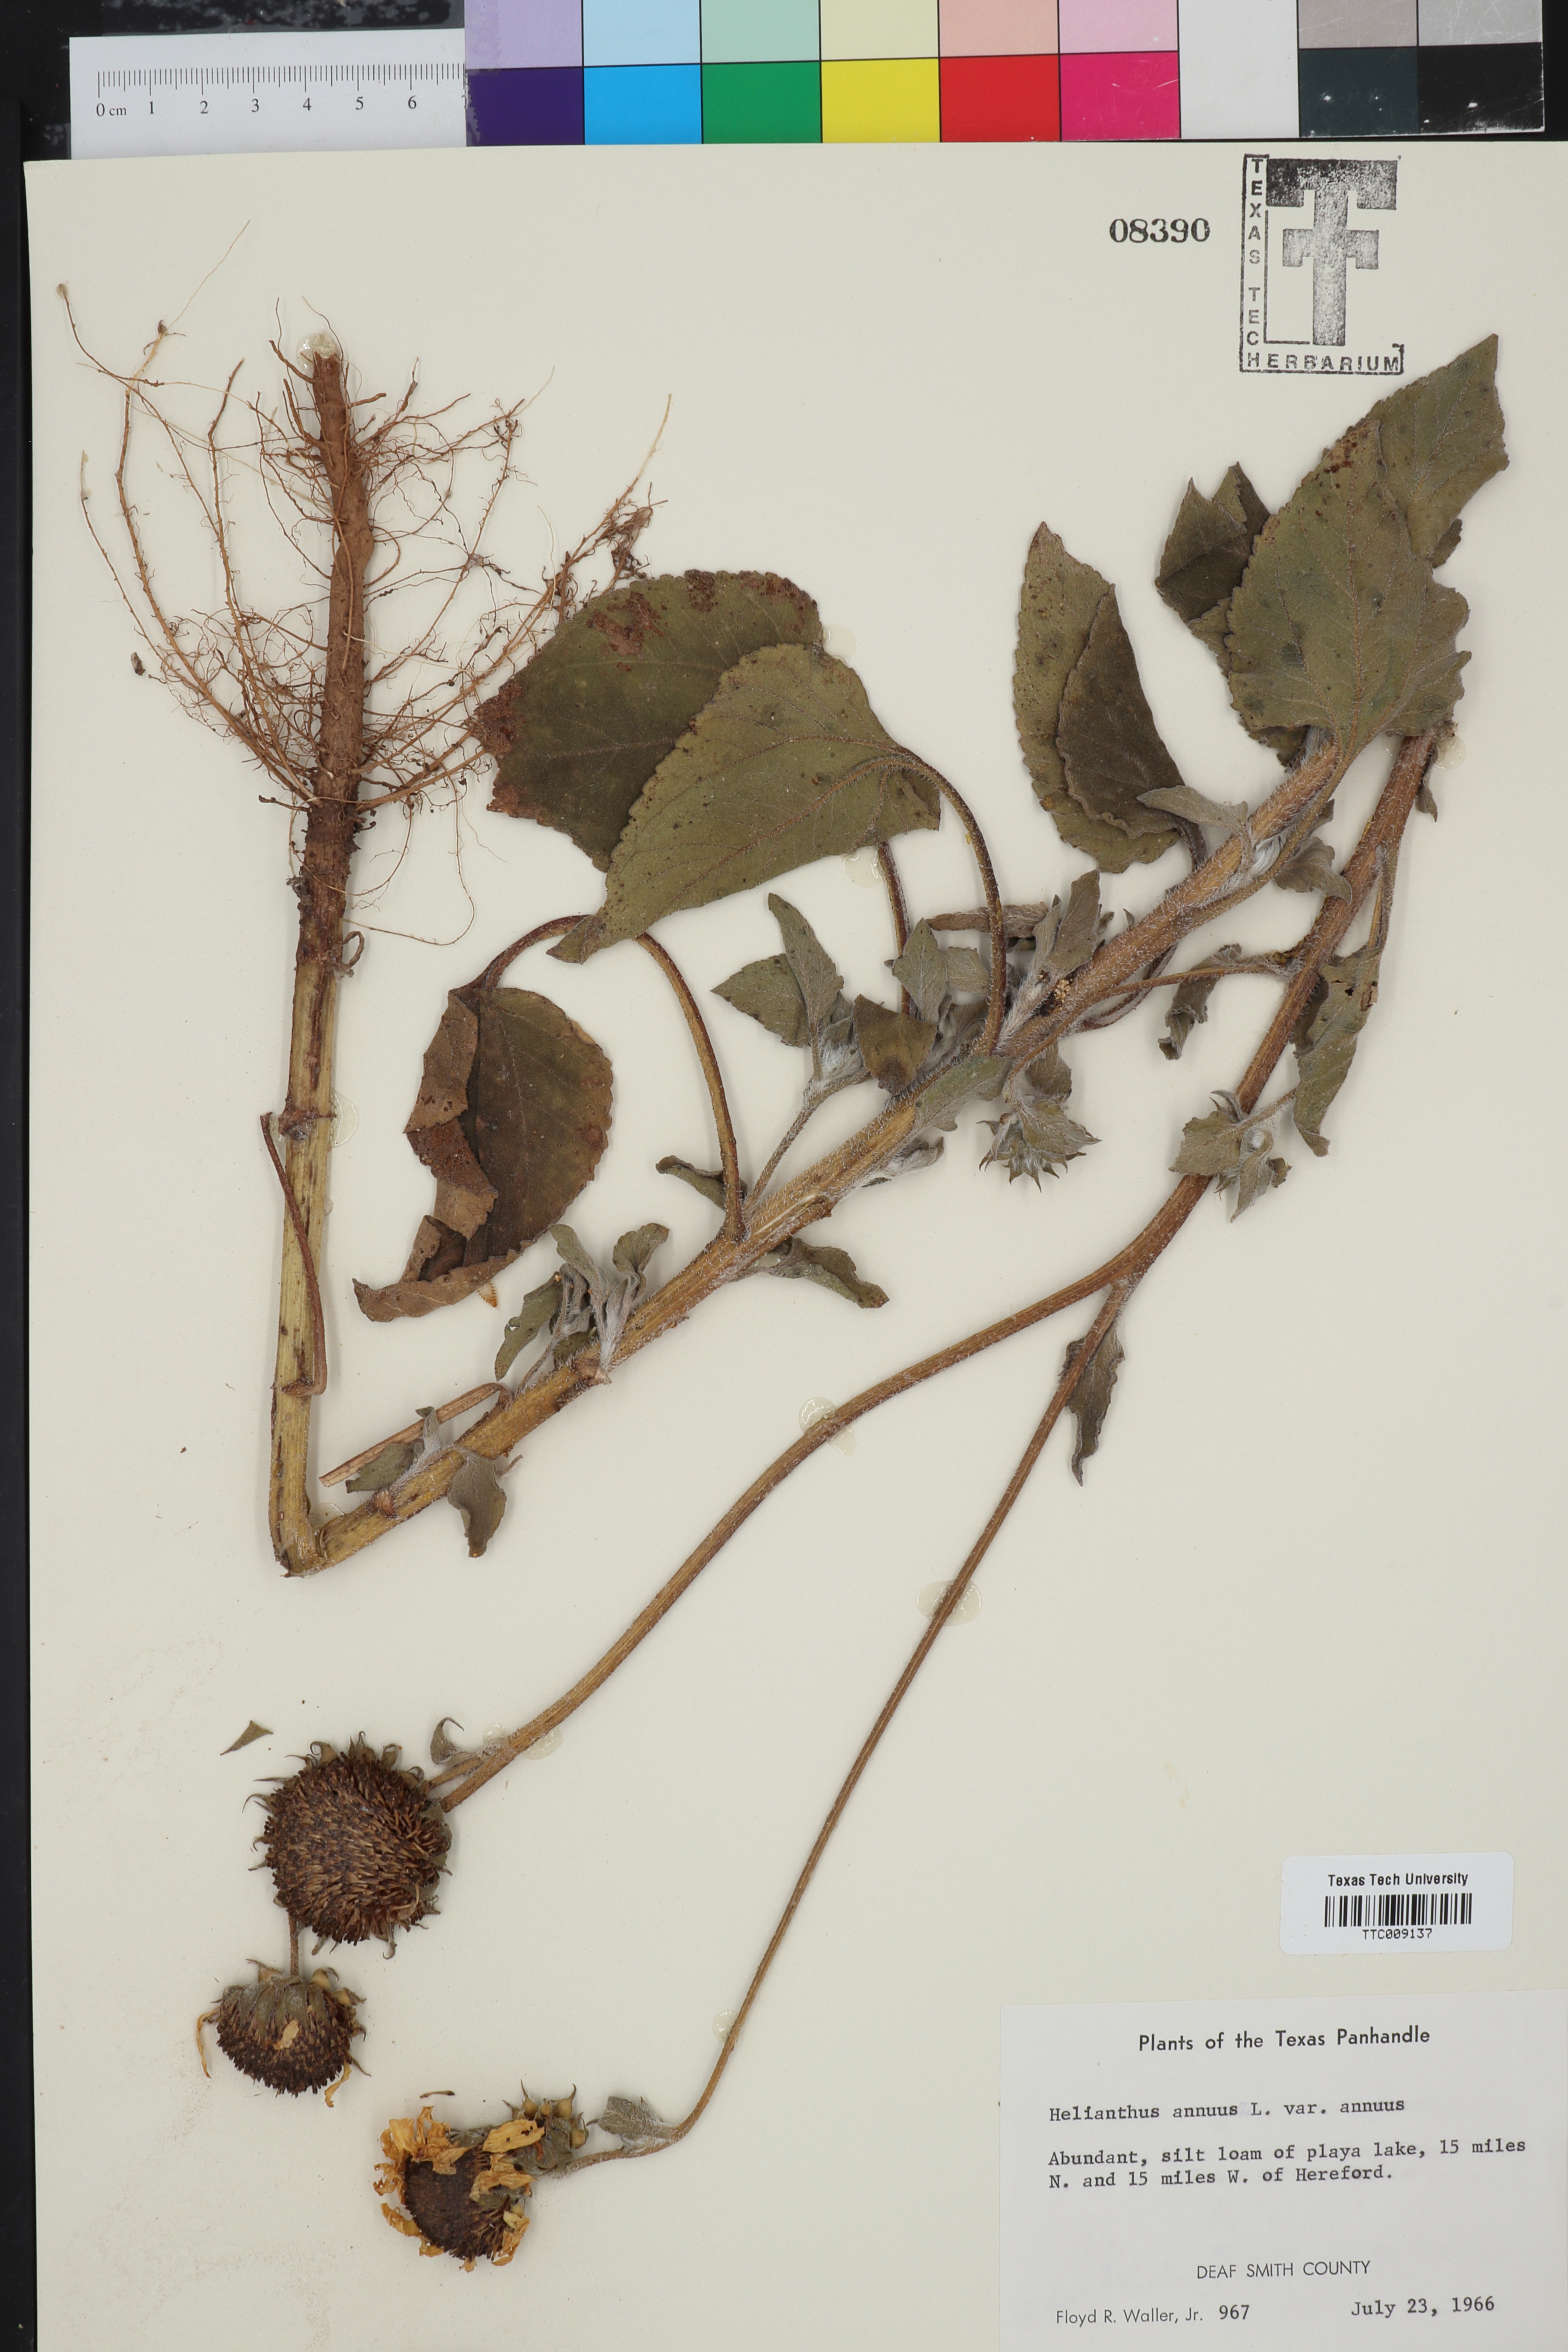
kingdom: Plantae
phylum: Tracheophyta
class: Magnoliopsida
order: Asterales
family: Asteraceae
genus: Helianthus
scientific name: Helianthus annuus
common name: Sunflower
